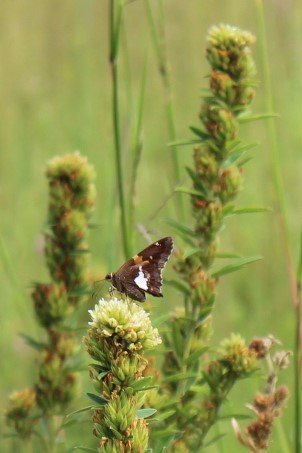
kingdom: Animalia
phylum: Arthropoda
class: Insecta
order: Lepidoptera
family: Hesperiidae
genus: Epargyreus
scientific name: Epargyreus clarus
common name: Silver-spotted Skipper
